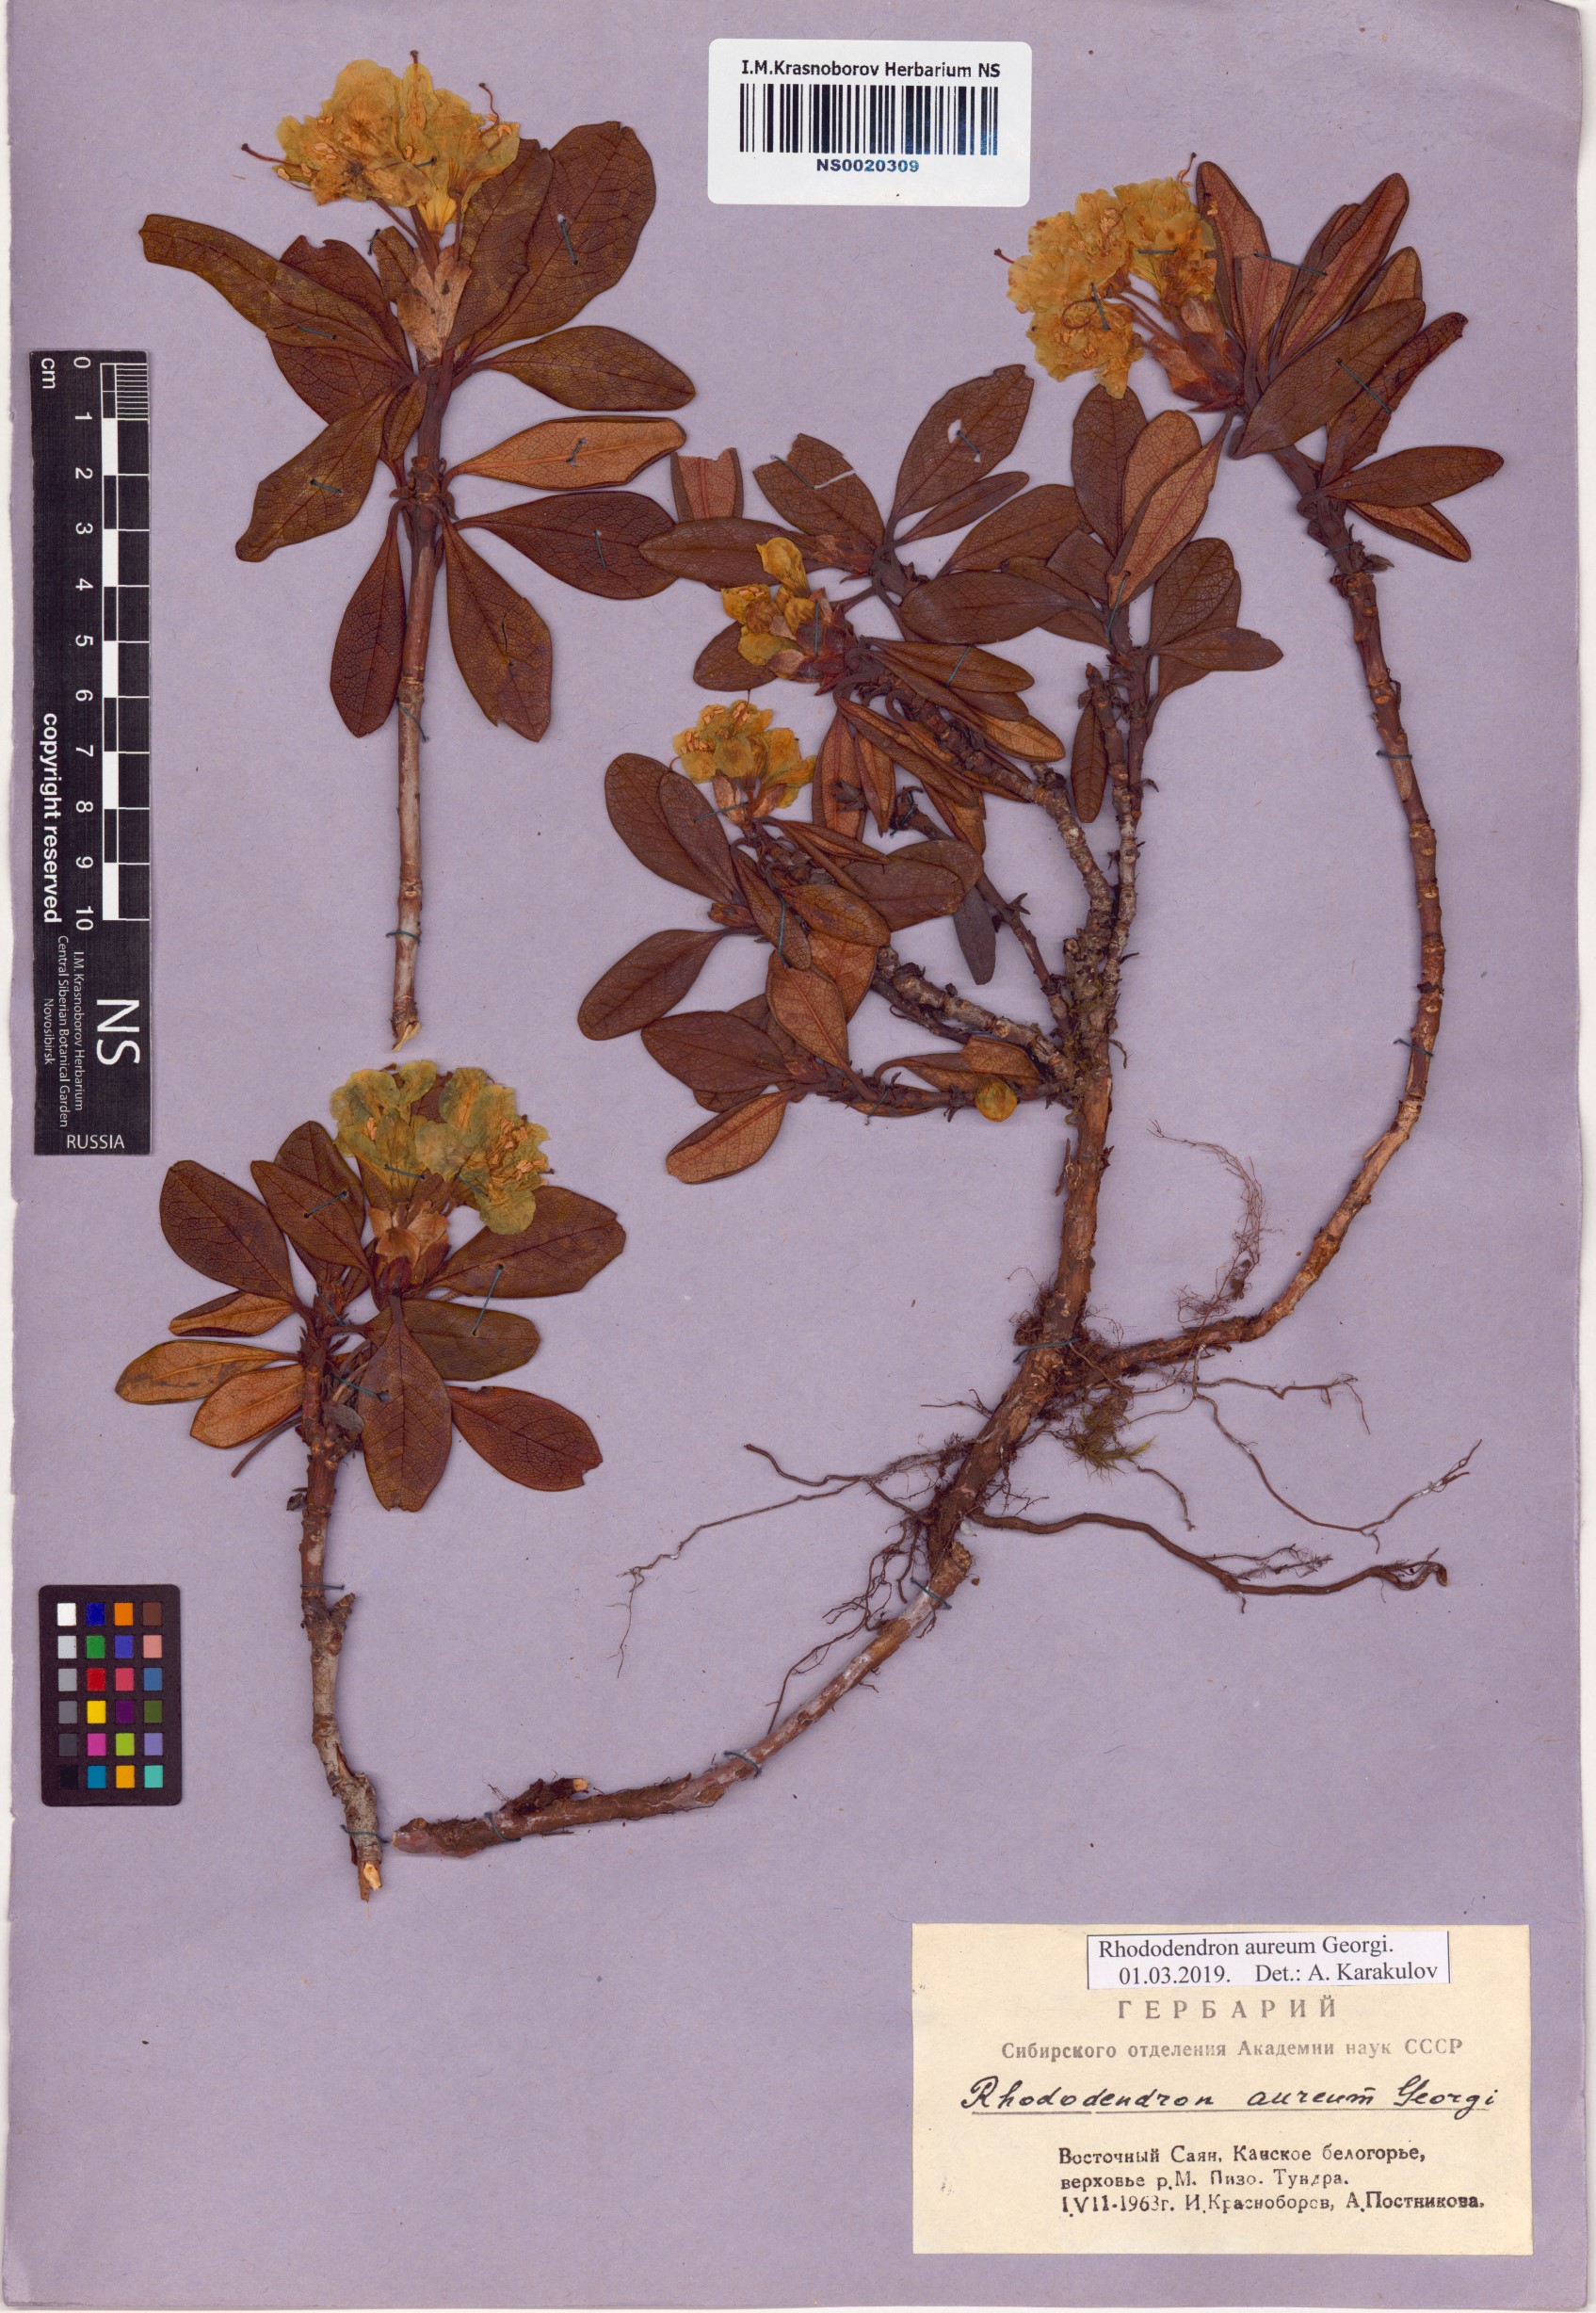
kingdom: Plantae
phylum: Tracheophyta
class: Magnoliopsida
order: Ericales
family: Ericaceae
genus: Rhododendron
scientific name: Rhododendron aureum
